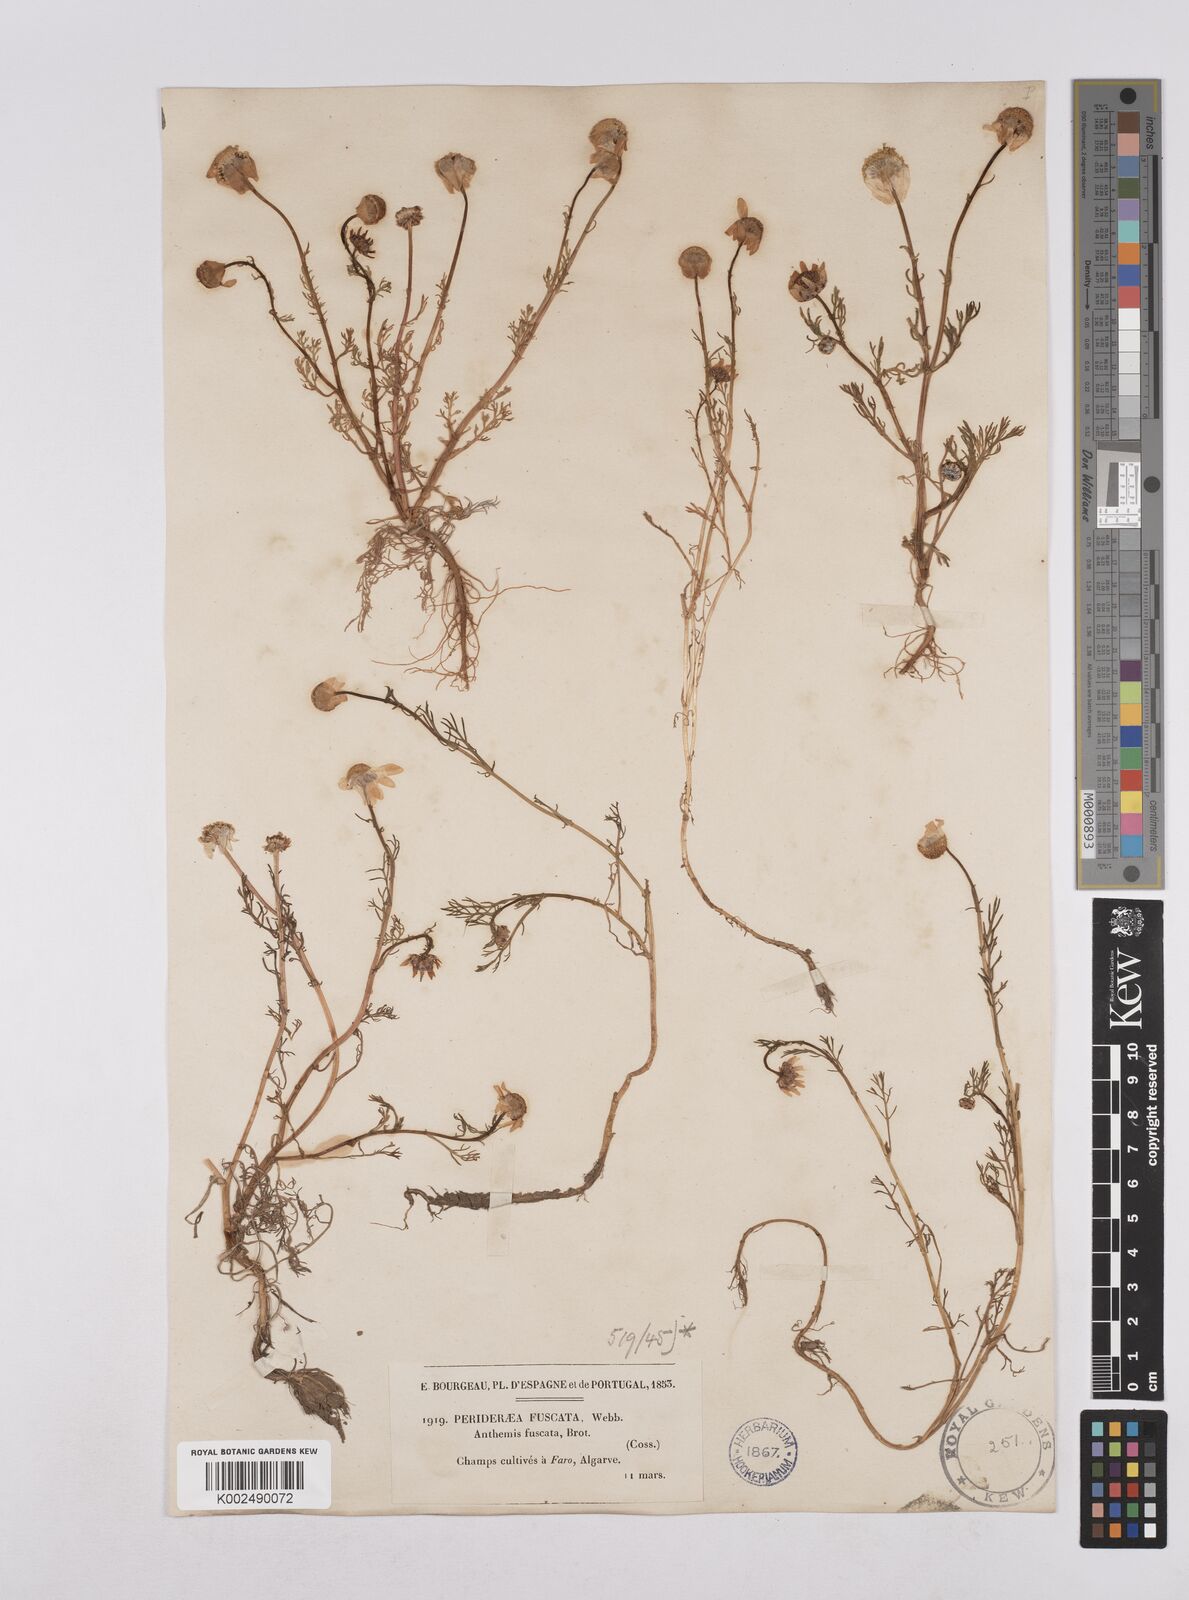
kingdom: Plantae
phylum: Tracheophyta
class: Magnoliopsida
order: Asterales
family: Asteraceae
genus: Chamaemelum
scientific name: Chamaemelum fuscatum
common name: Chamomile
